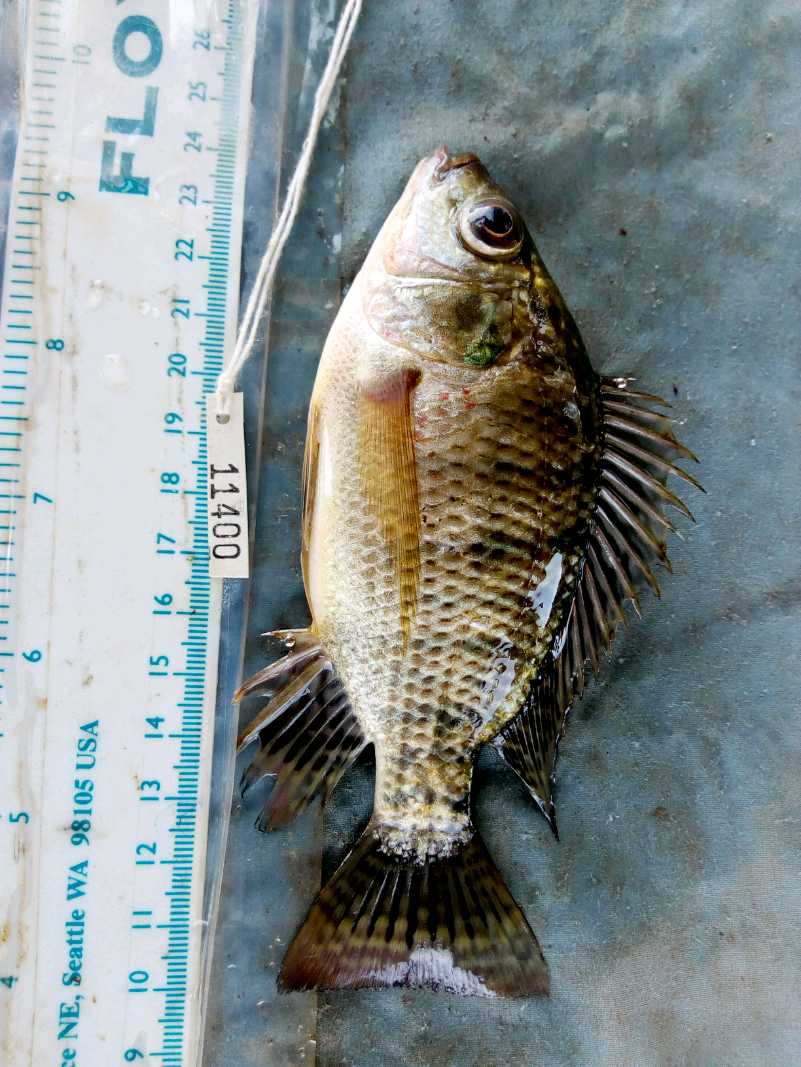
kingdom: Animalia
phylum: Chordata
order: Perciformes
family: Cichlidae
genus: Oreochromis
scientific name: Oreochromis spilurus
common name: Sabaki tilapia
